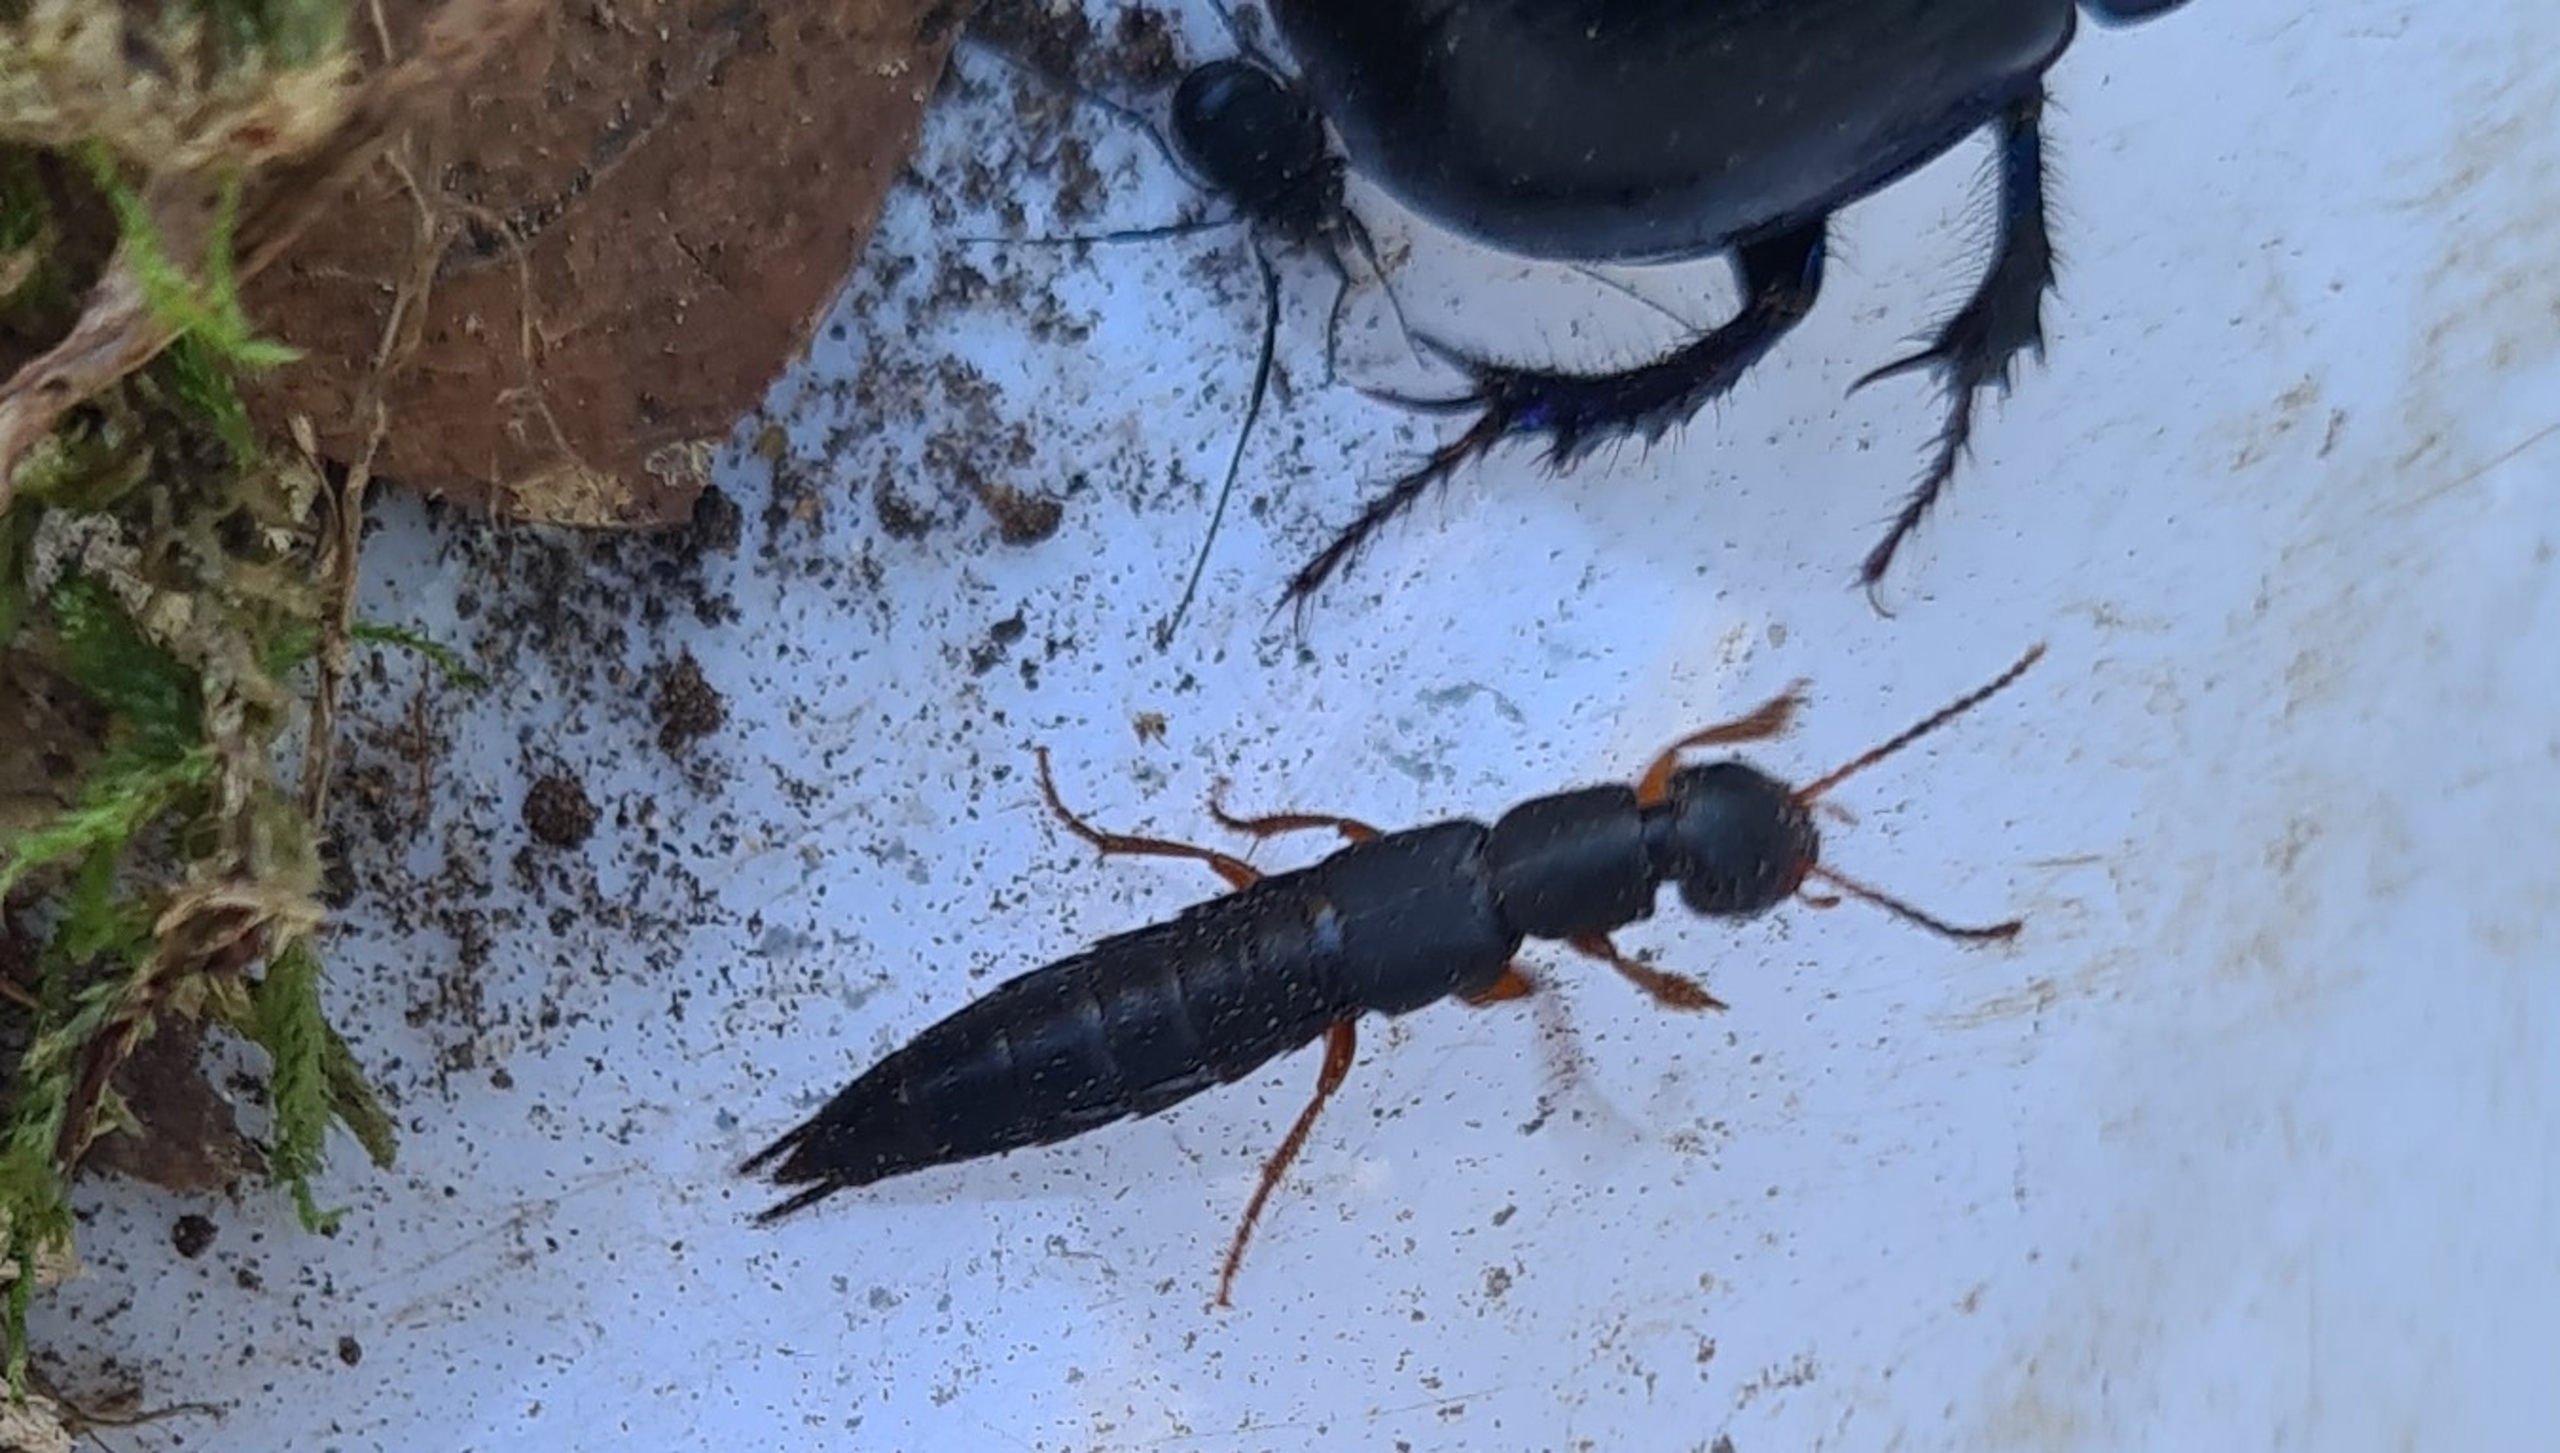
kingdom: Animalia
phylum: Arthropoda
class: Insecta
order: Coleoptera
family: Staphylinidae
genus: Tasgius
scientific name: Tasgius morsitans
